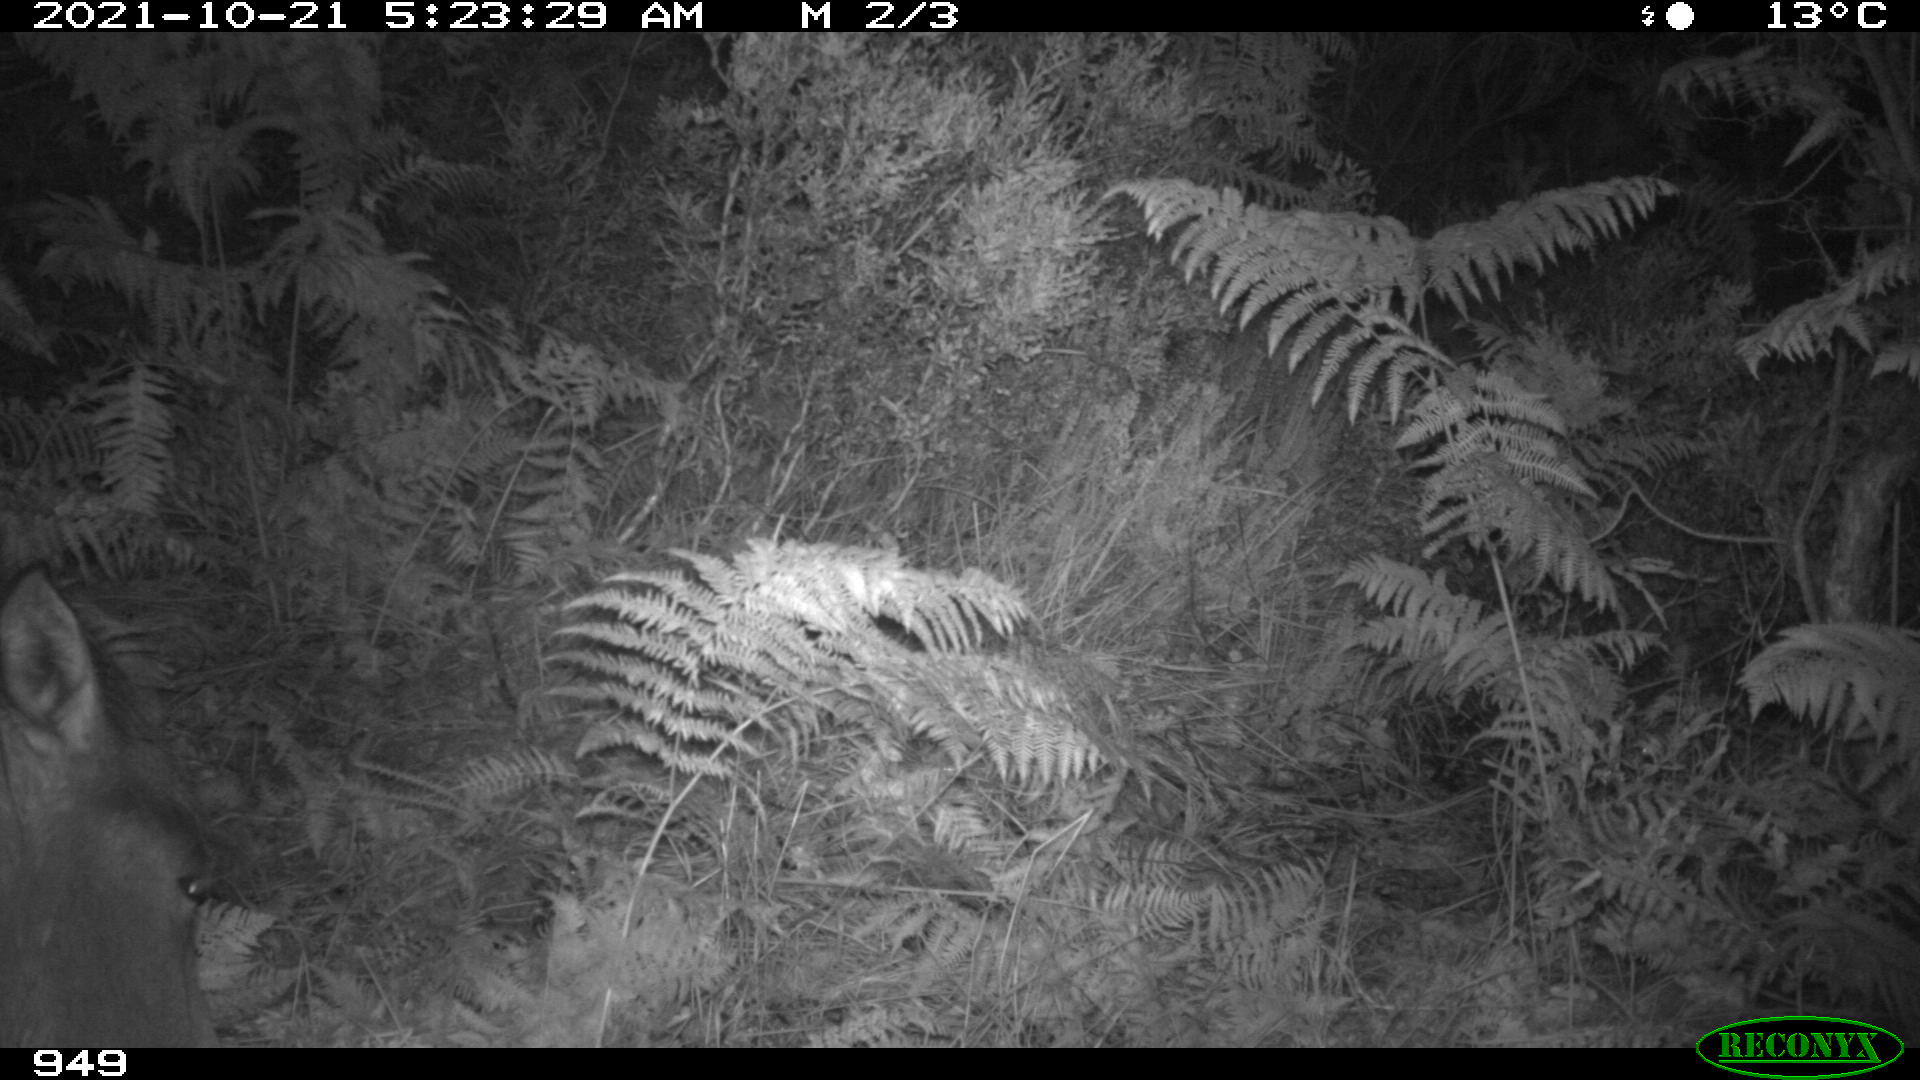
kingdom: Animalia
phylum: Chordata
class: Mammalia
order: Perissodactyla
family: Equidae
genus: Equus
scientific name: Equus caballus
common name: Horse
